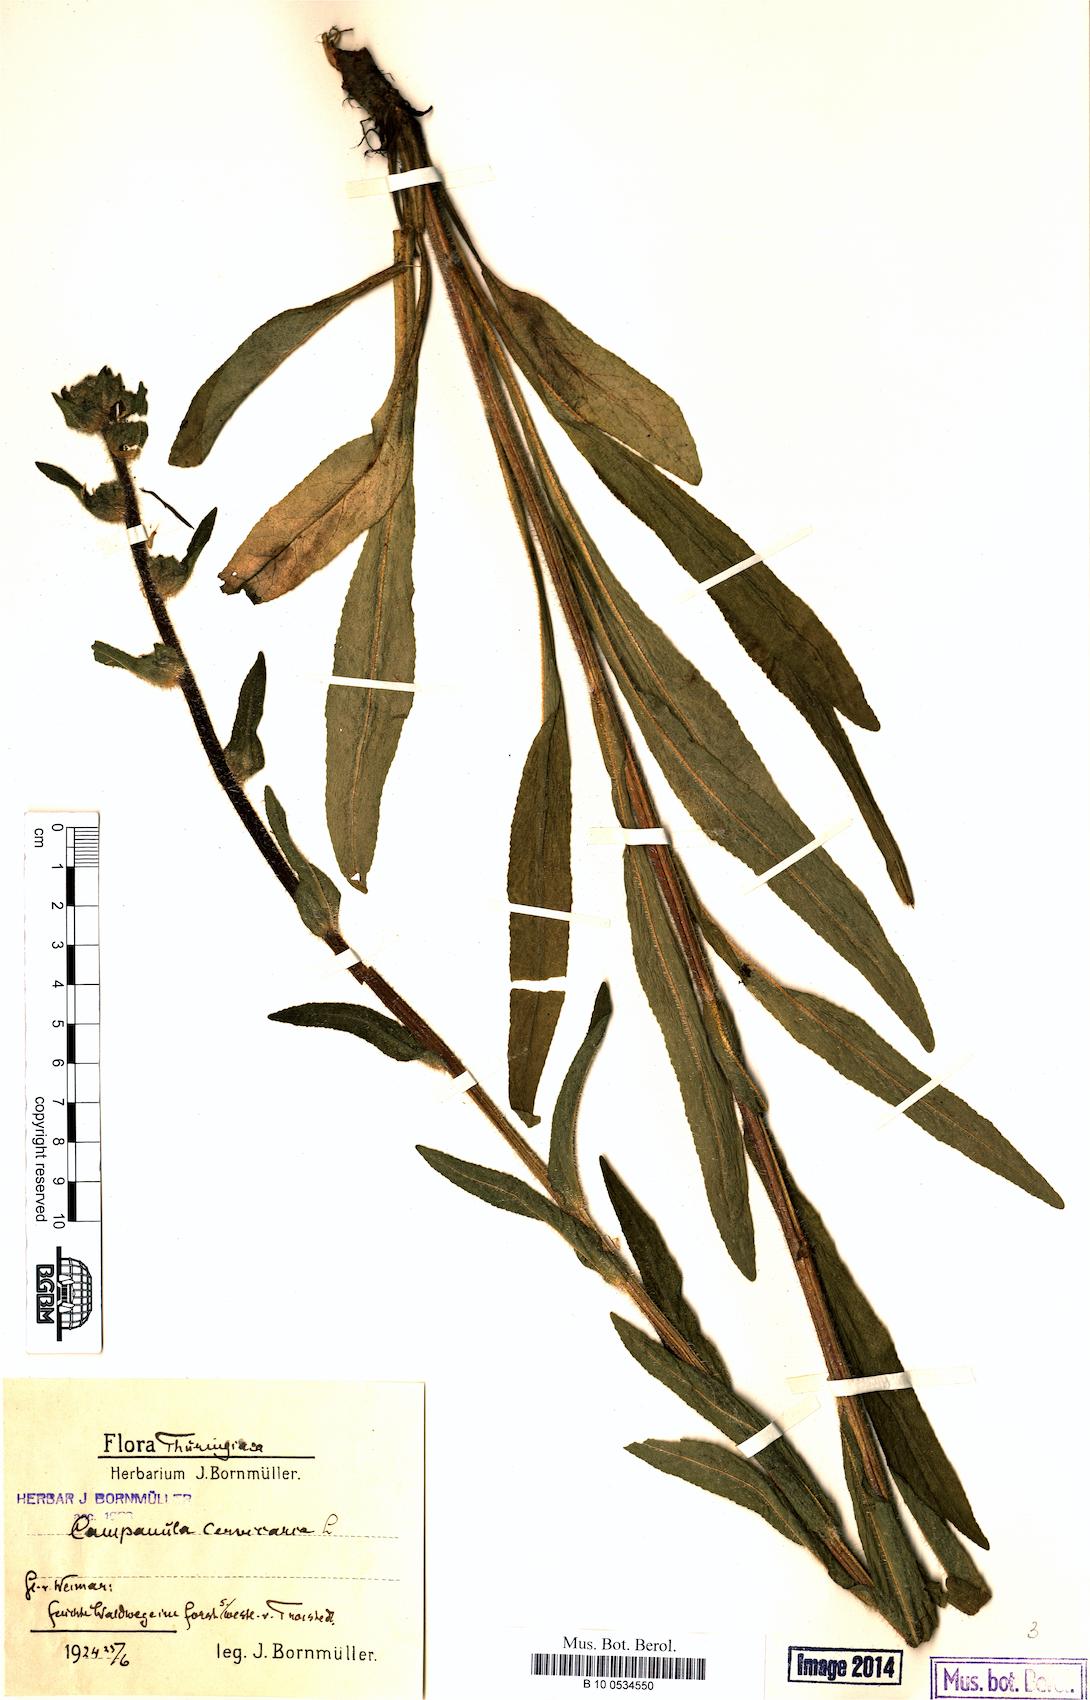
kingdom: Plantae
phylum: Tracheophyta
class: Magnoliopsida
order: Asterales
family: Campanulaceae
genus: Campanula
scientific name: Campanula cervicaria
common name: Bristly bellflower
